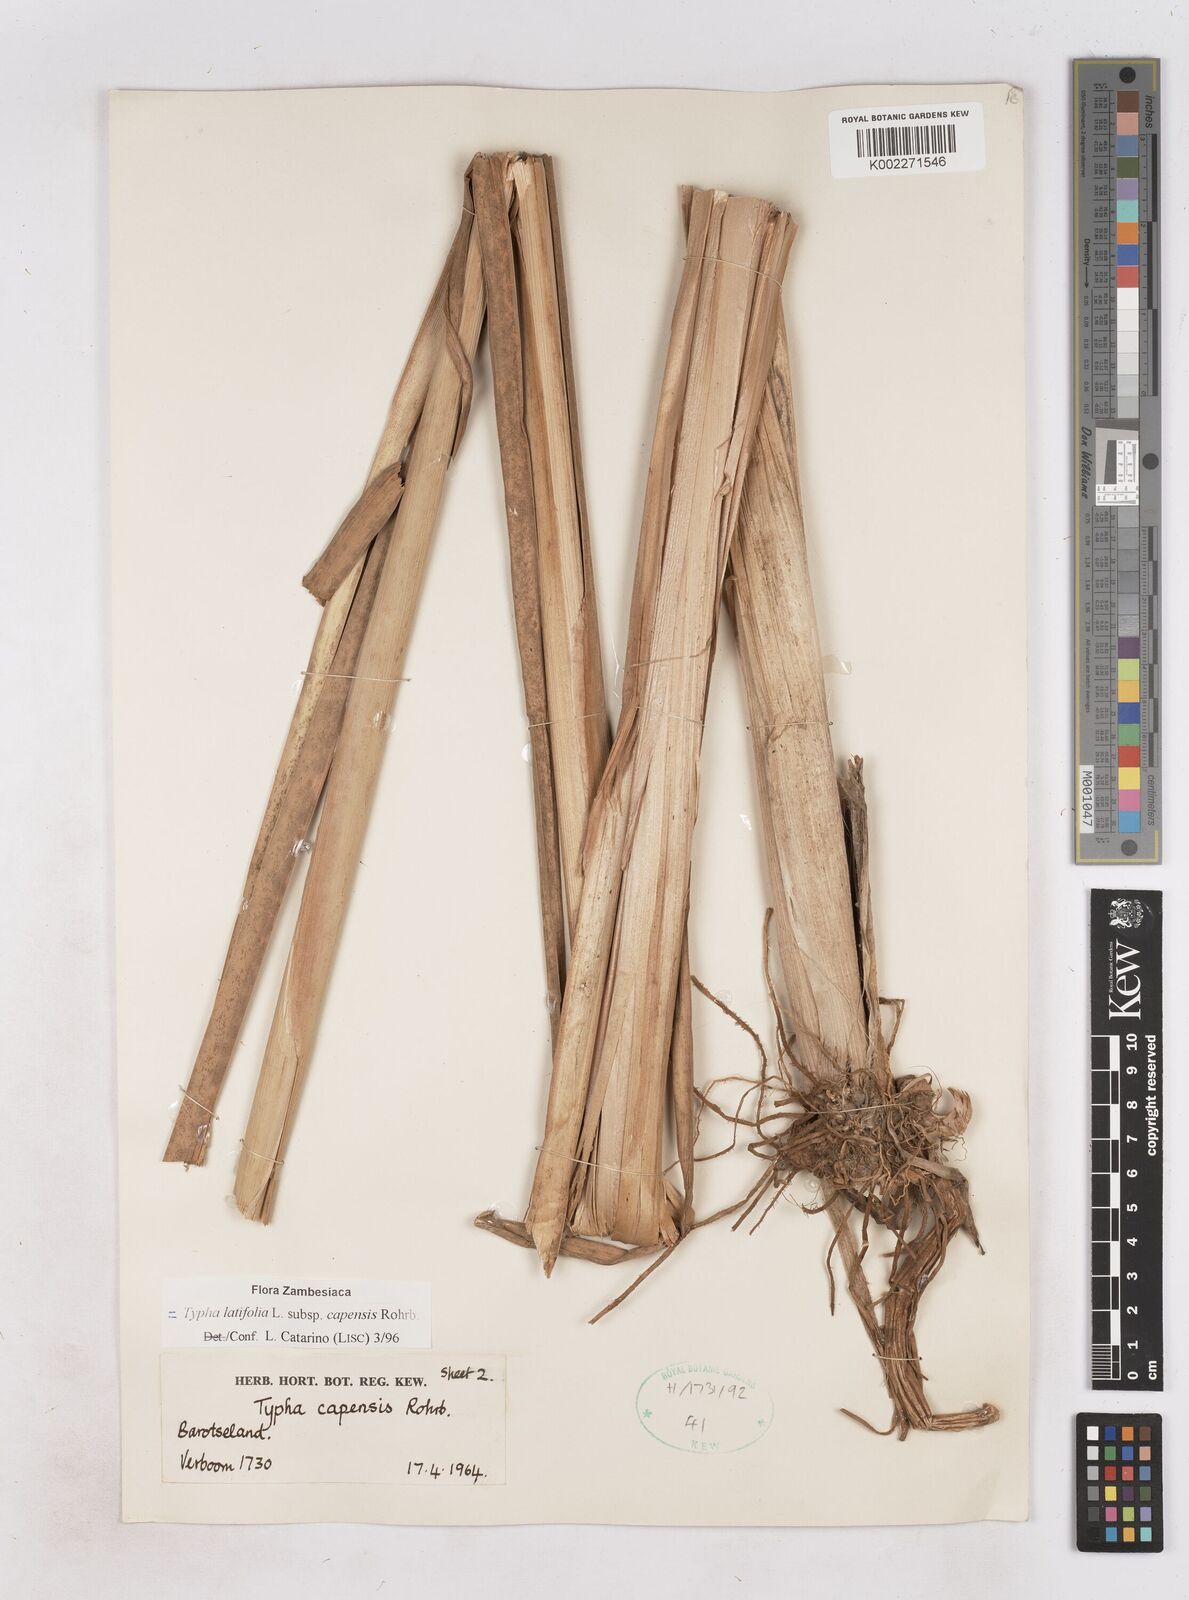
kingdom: Plantae
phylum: Tracheophyta
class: Liliopsida
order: Poales
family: Typhaceae
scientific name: Typhaceae
